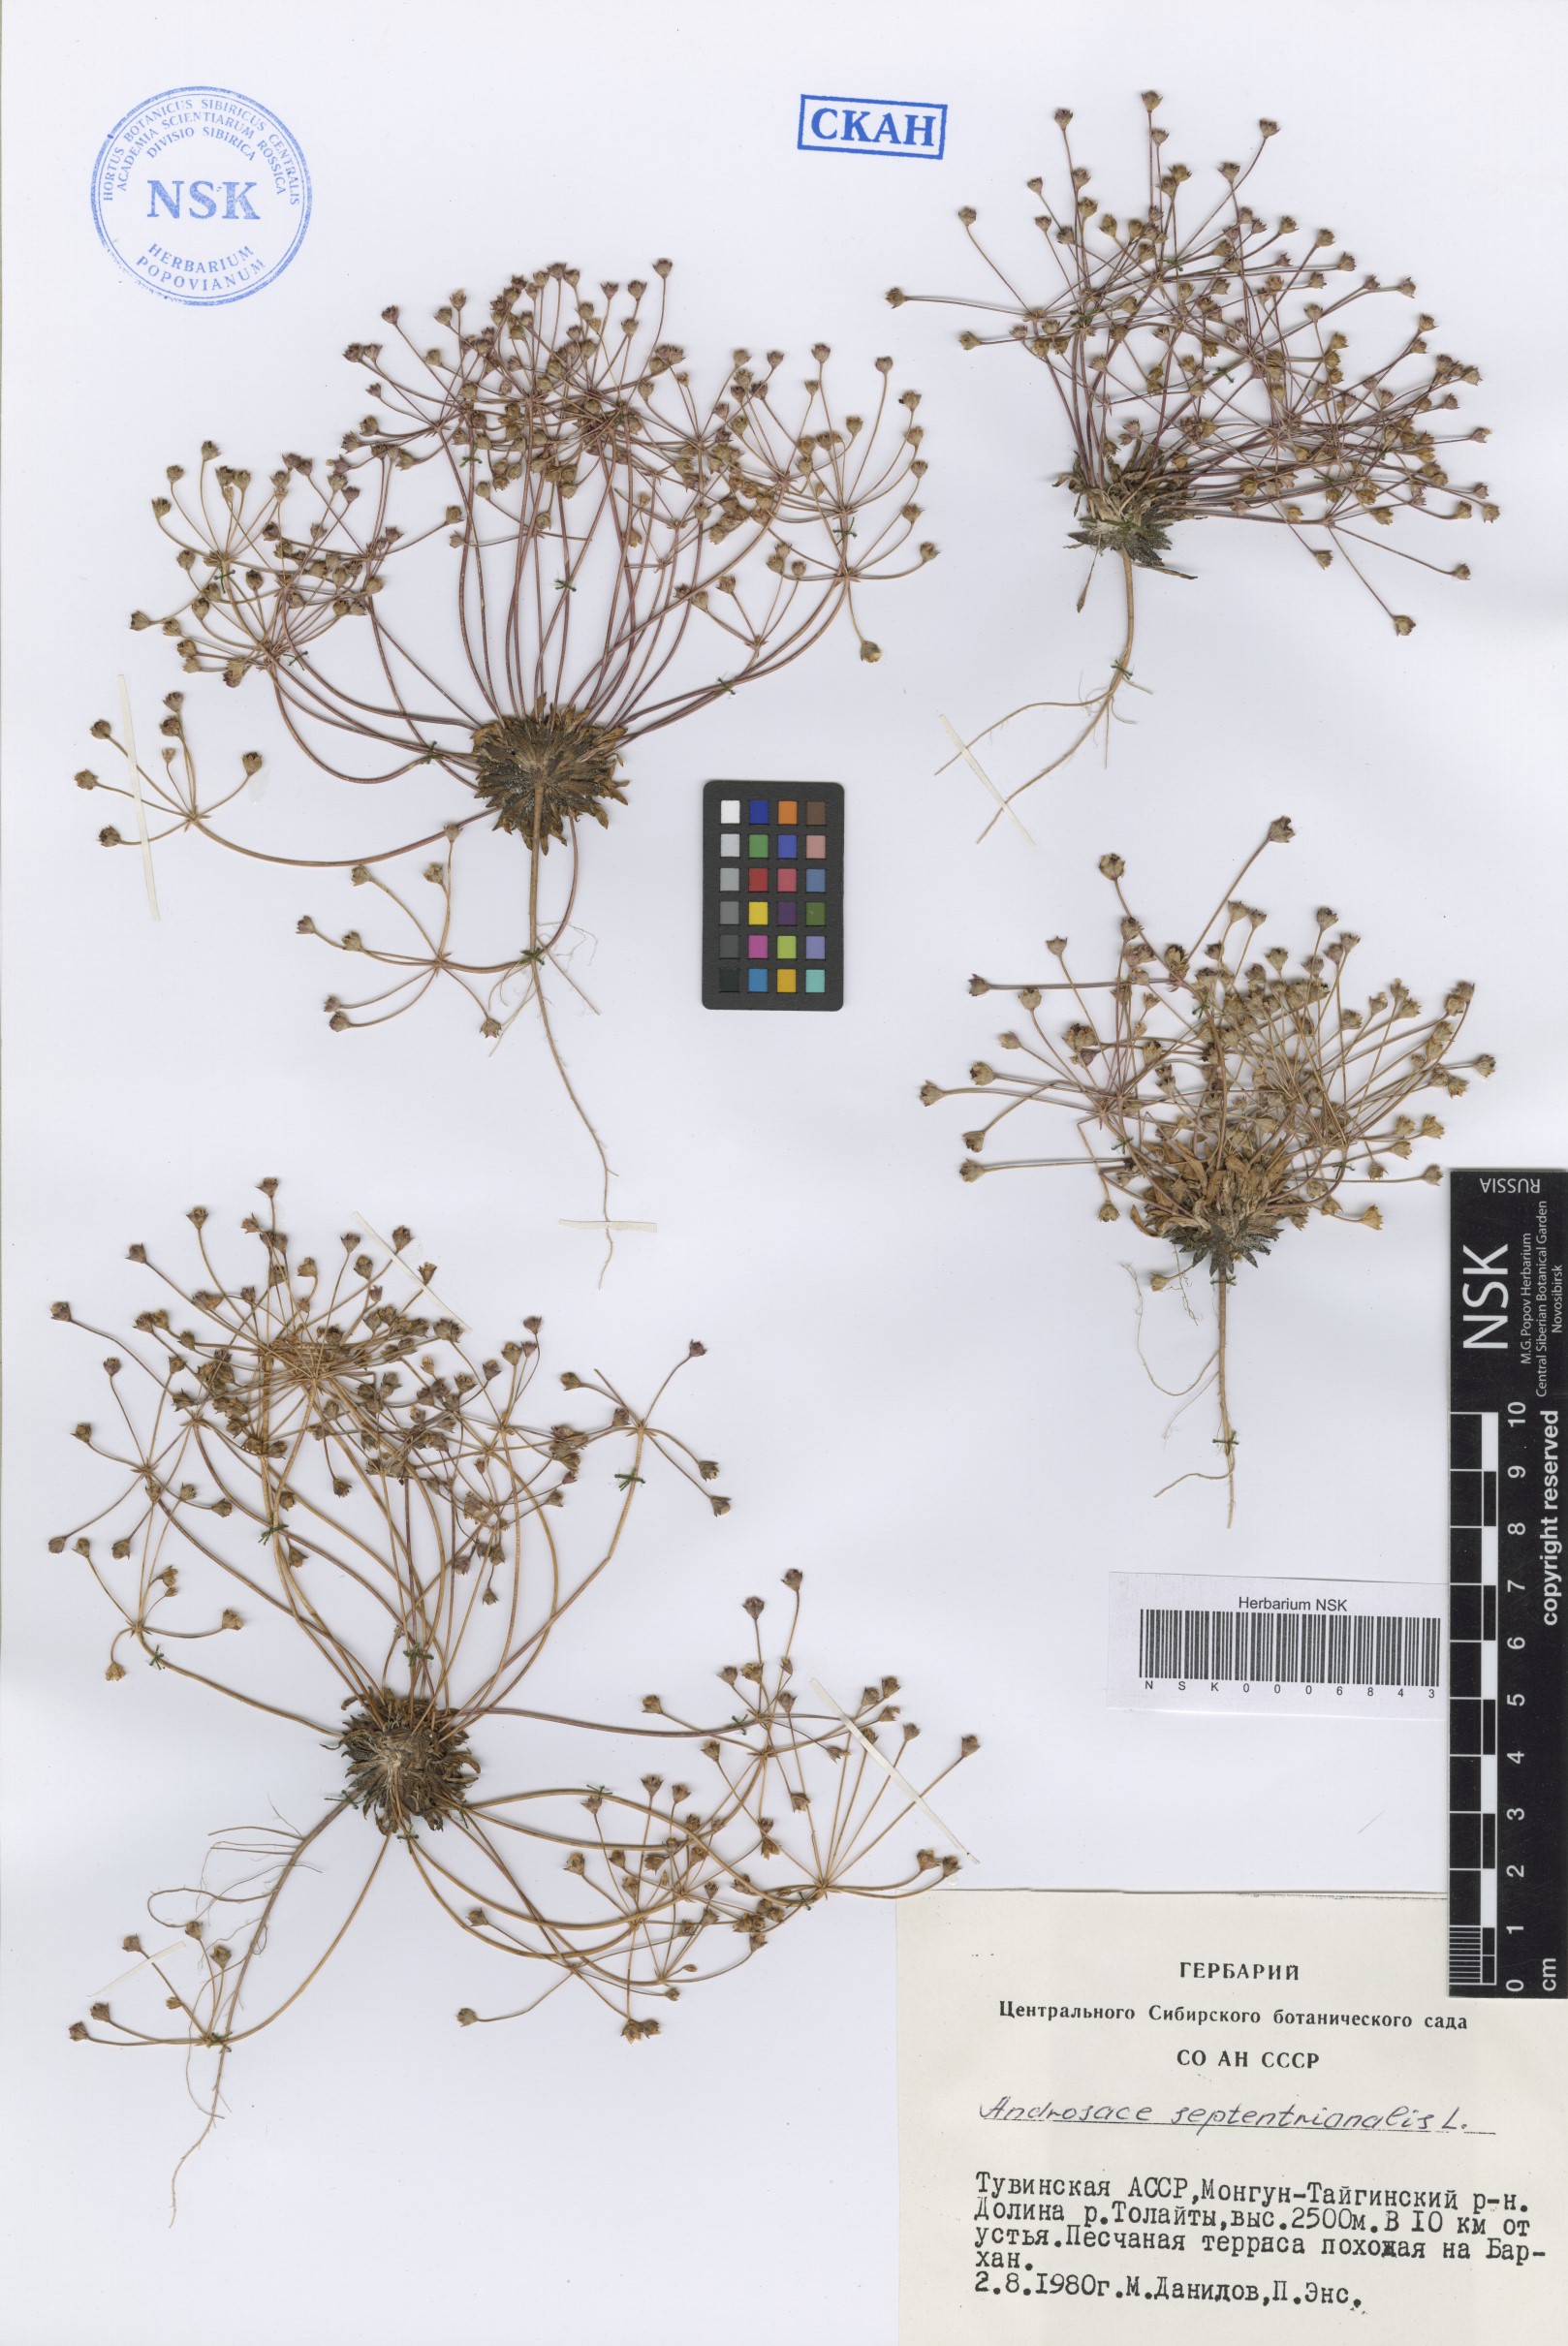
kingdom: Plantae
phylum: Tracheophyta
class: Magnoliopsida
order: Ericales
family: Primulaceae
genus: Androsace
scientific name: Androsace septentrionalis
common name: Hairy northern fairy-candelabra
